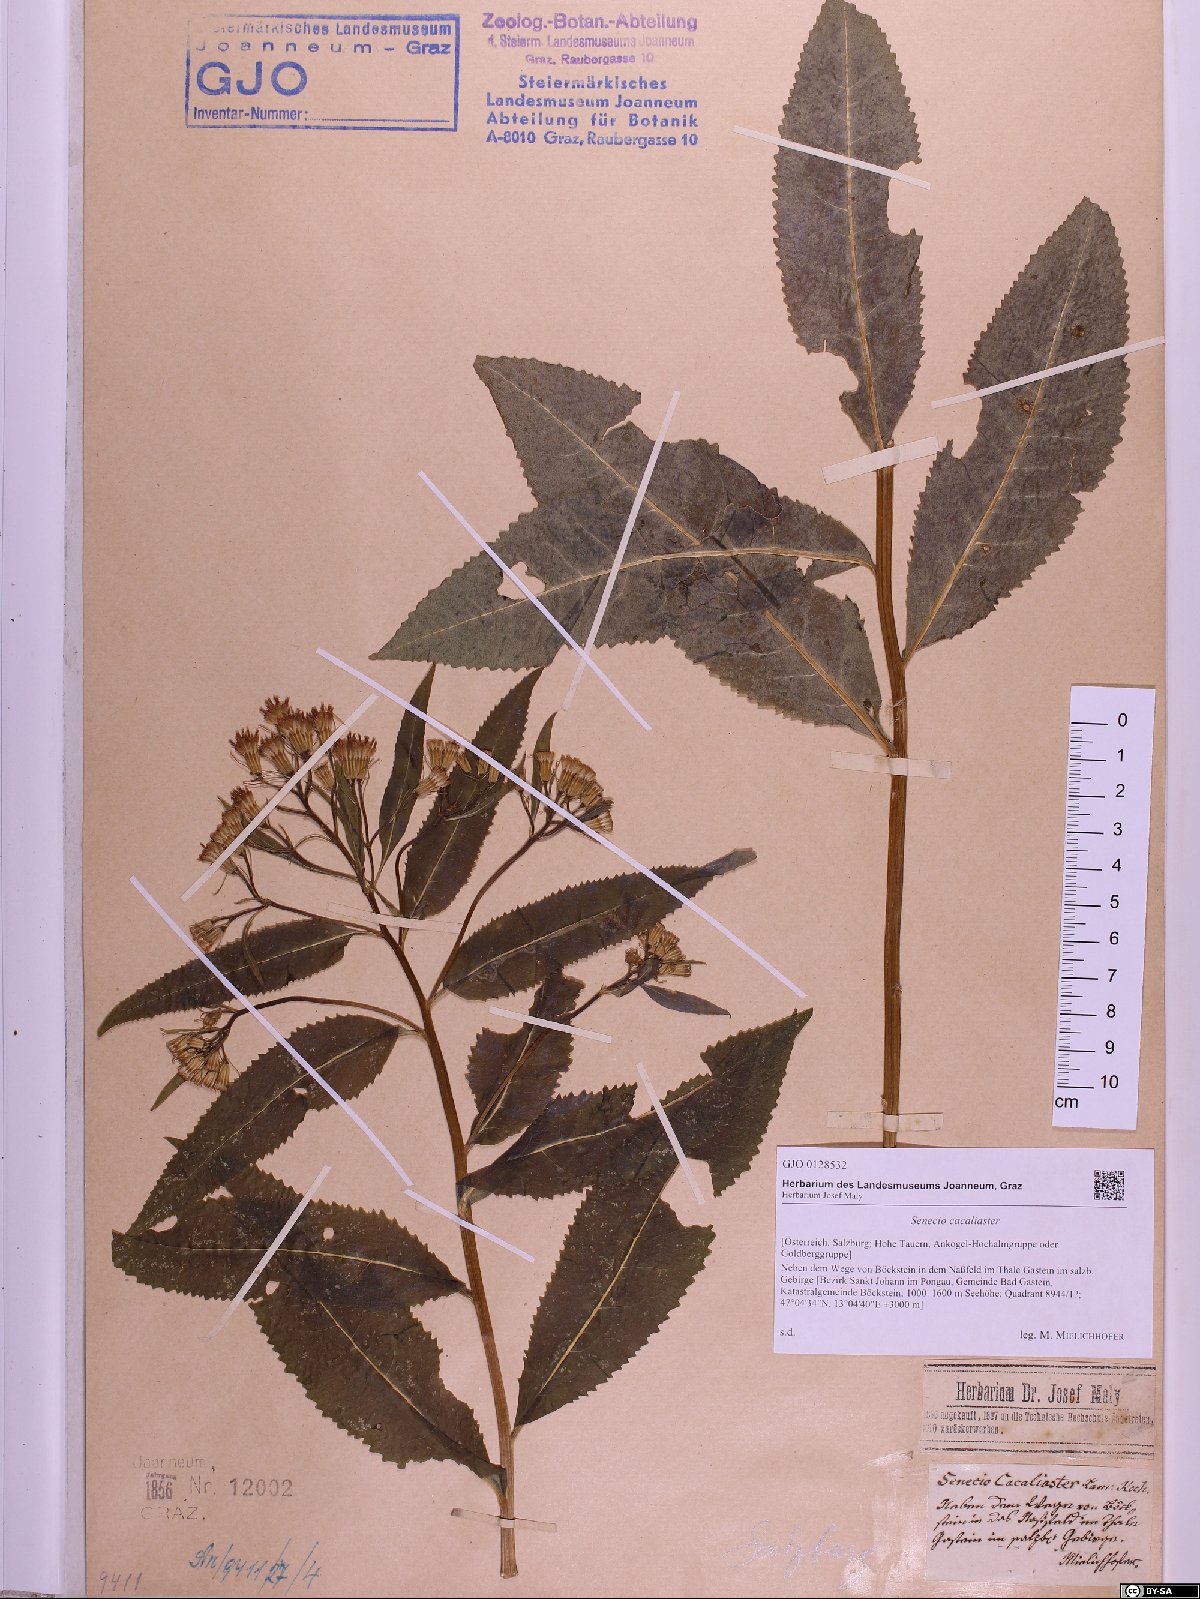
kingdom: Plantae
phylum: Tracheophyta
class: Magnoliopsida
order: Asterales
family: Asteraceae
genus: Senecio
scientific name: Senecio cacaliaster
